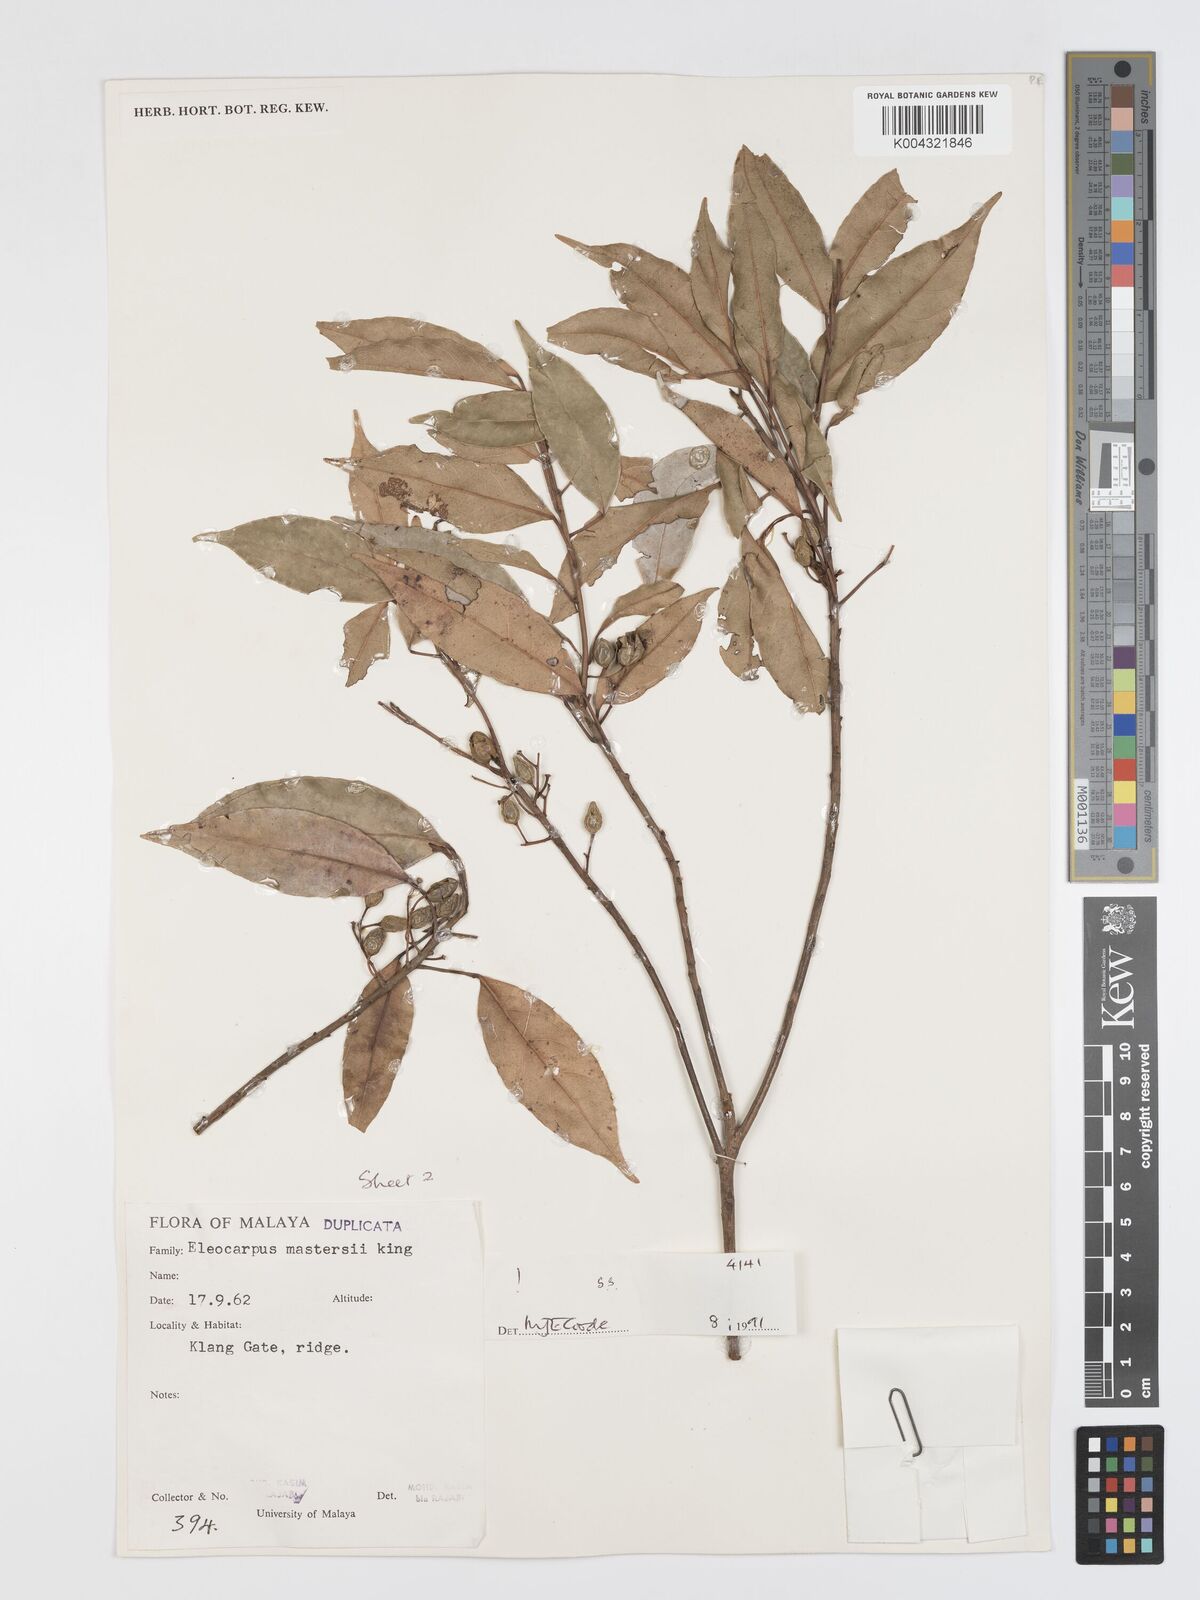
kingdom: Plantae
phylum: Tracheophyta
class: Magnoliopsida
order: Oxalidales
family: Elaeocarpaceae
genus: Elaeocarpus
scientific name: Elaeocarpus mastersii
